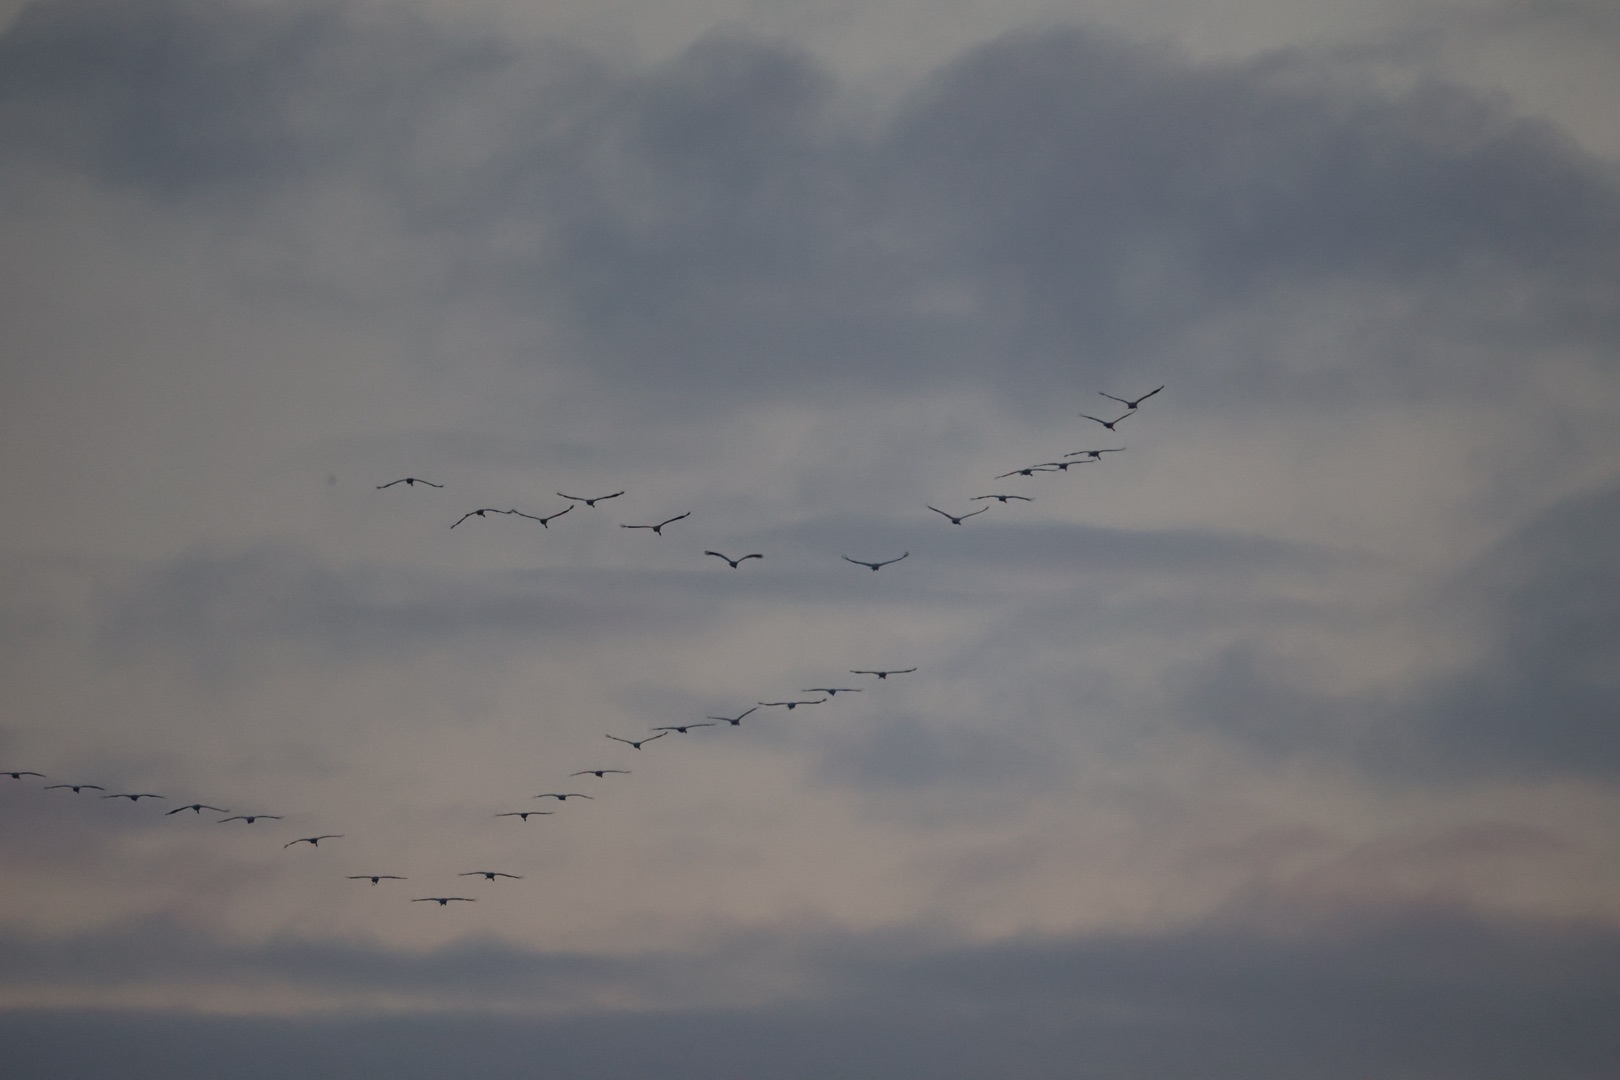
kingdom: Animalia
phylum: Chordata
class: Aves
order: Gruiformes
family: Gruidae
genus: Grus
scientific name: Grus grus
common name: Trane
